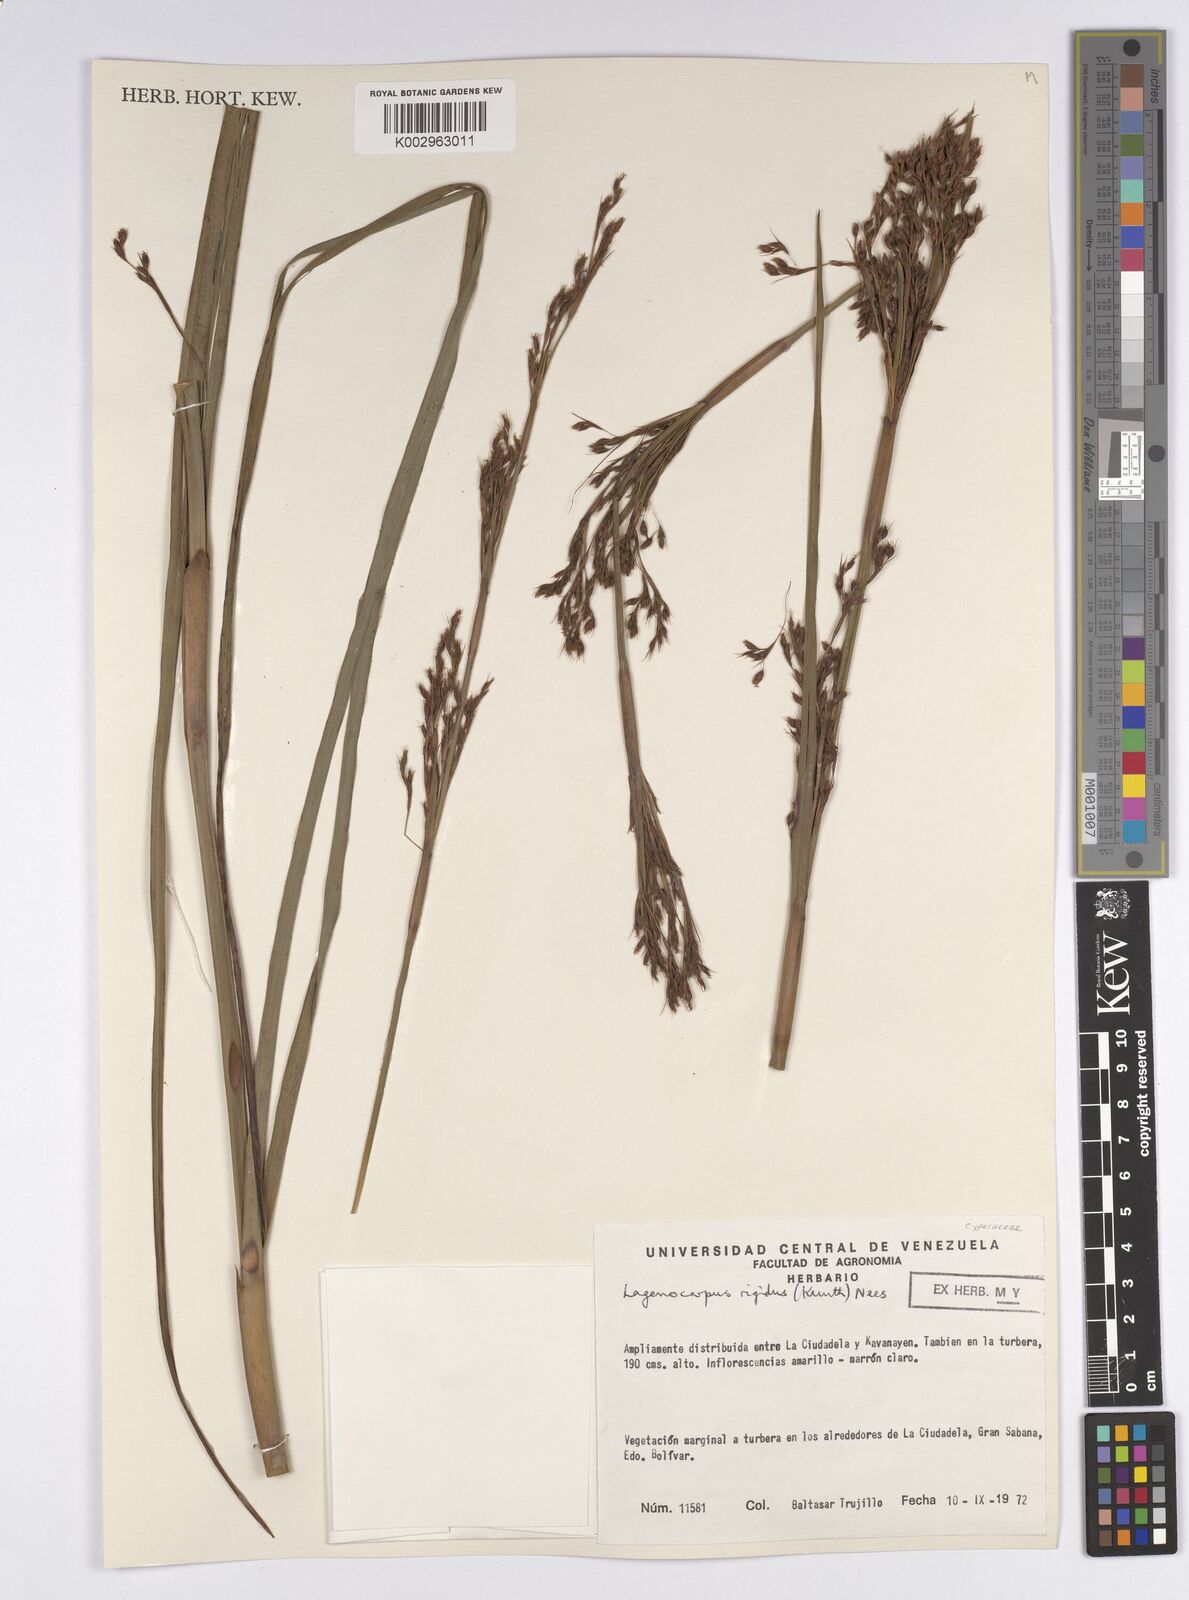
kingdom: Plantae
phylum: Tracheophyta
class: Liliopsida
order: Poales
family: Cyperaceae
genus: Lagenocarpus
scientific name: Lagenocarpus rigidus
